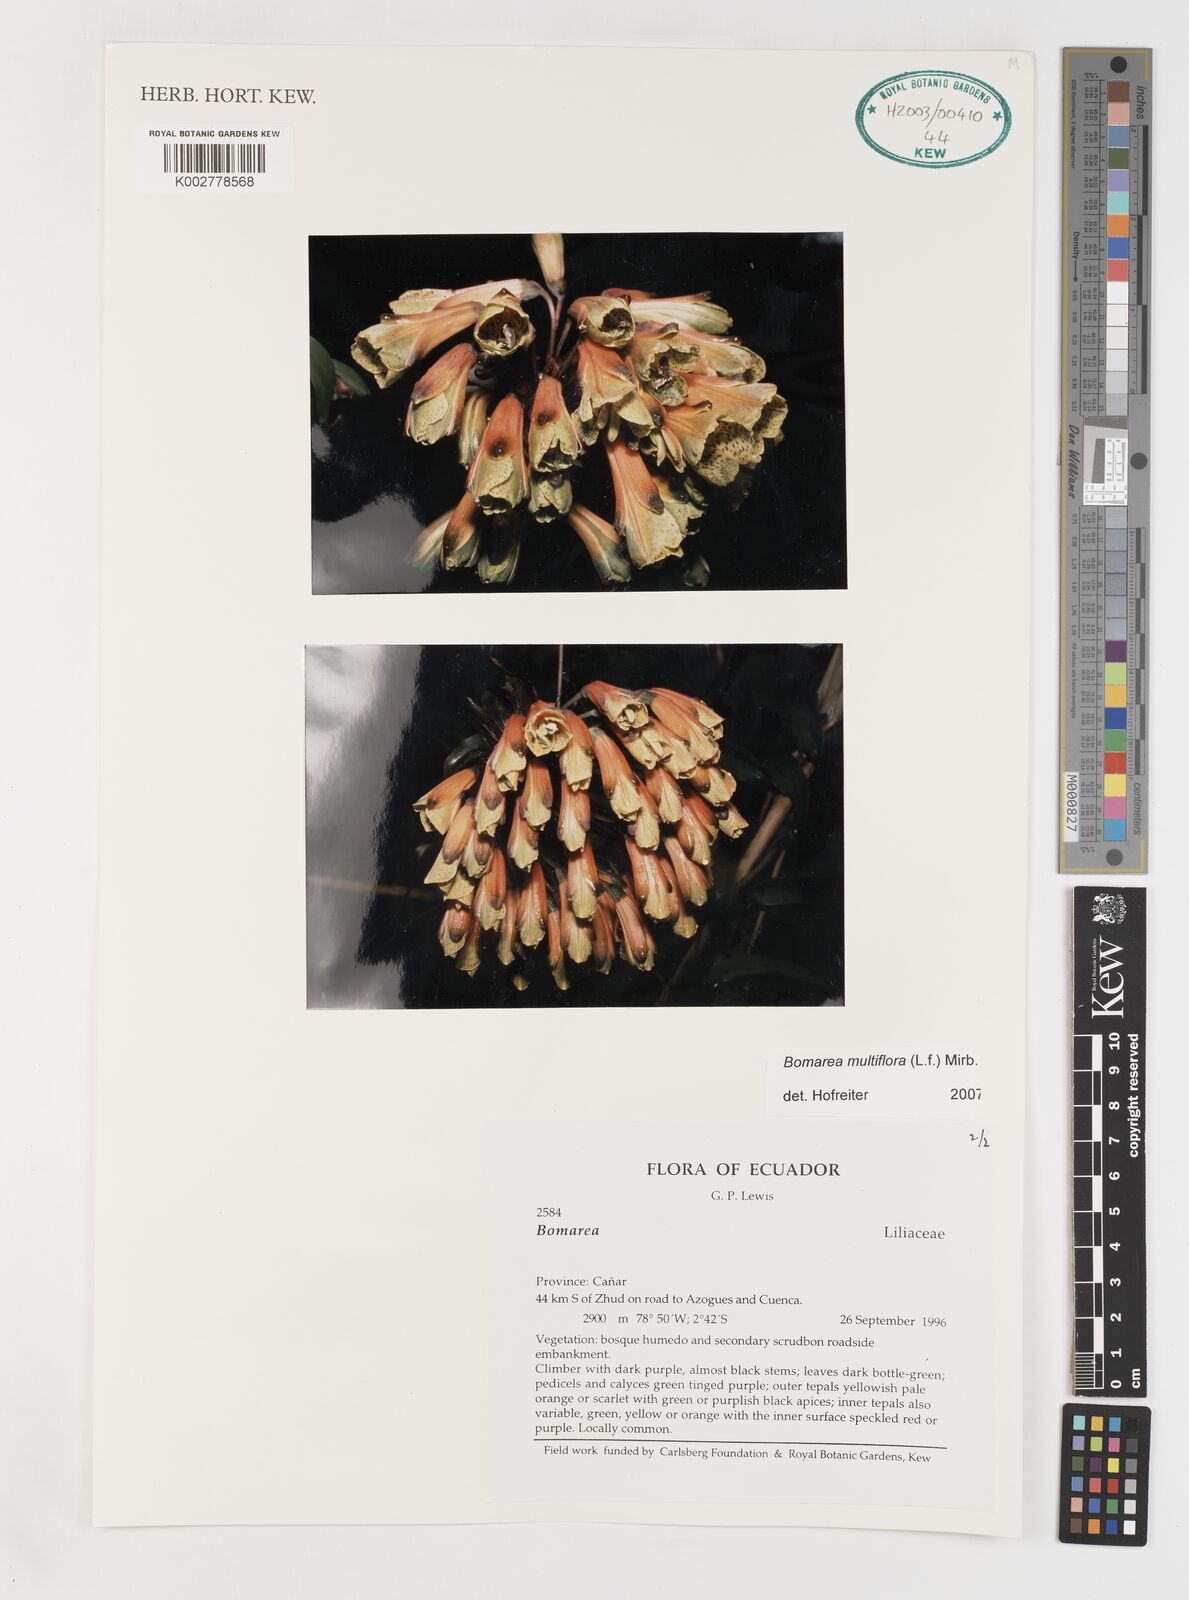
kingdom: Plantae
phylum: Tracheophyta
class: Liliopsida
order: Liliales
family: Alstroemeriaceae
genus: Bomarea
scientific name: Bomarea multiflora
